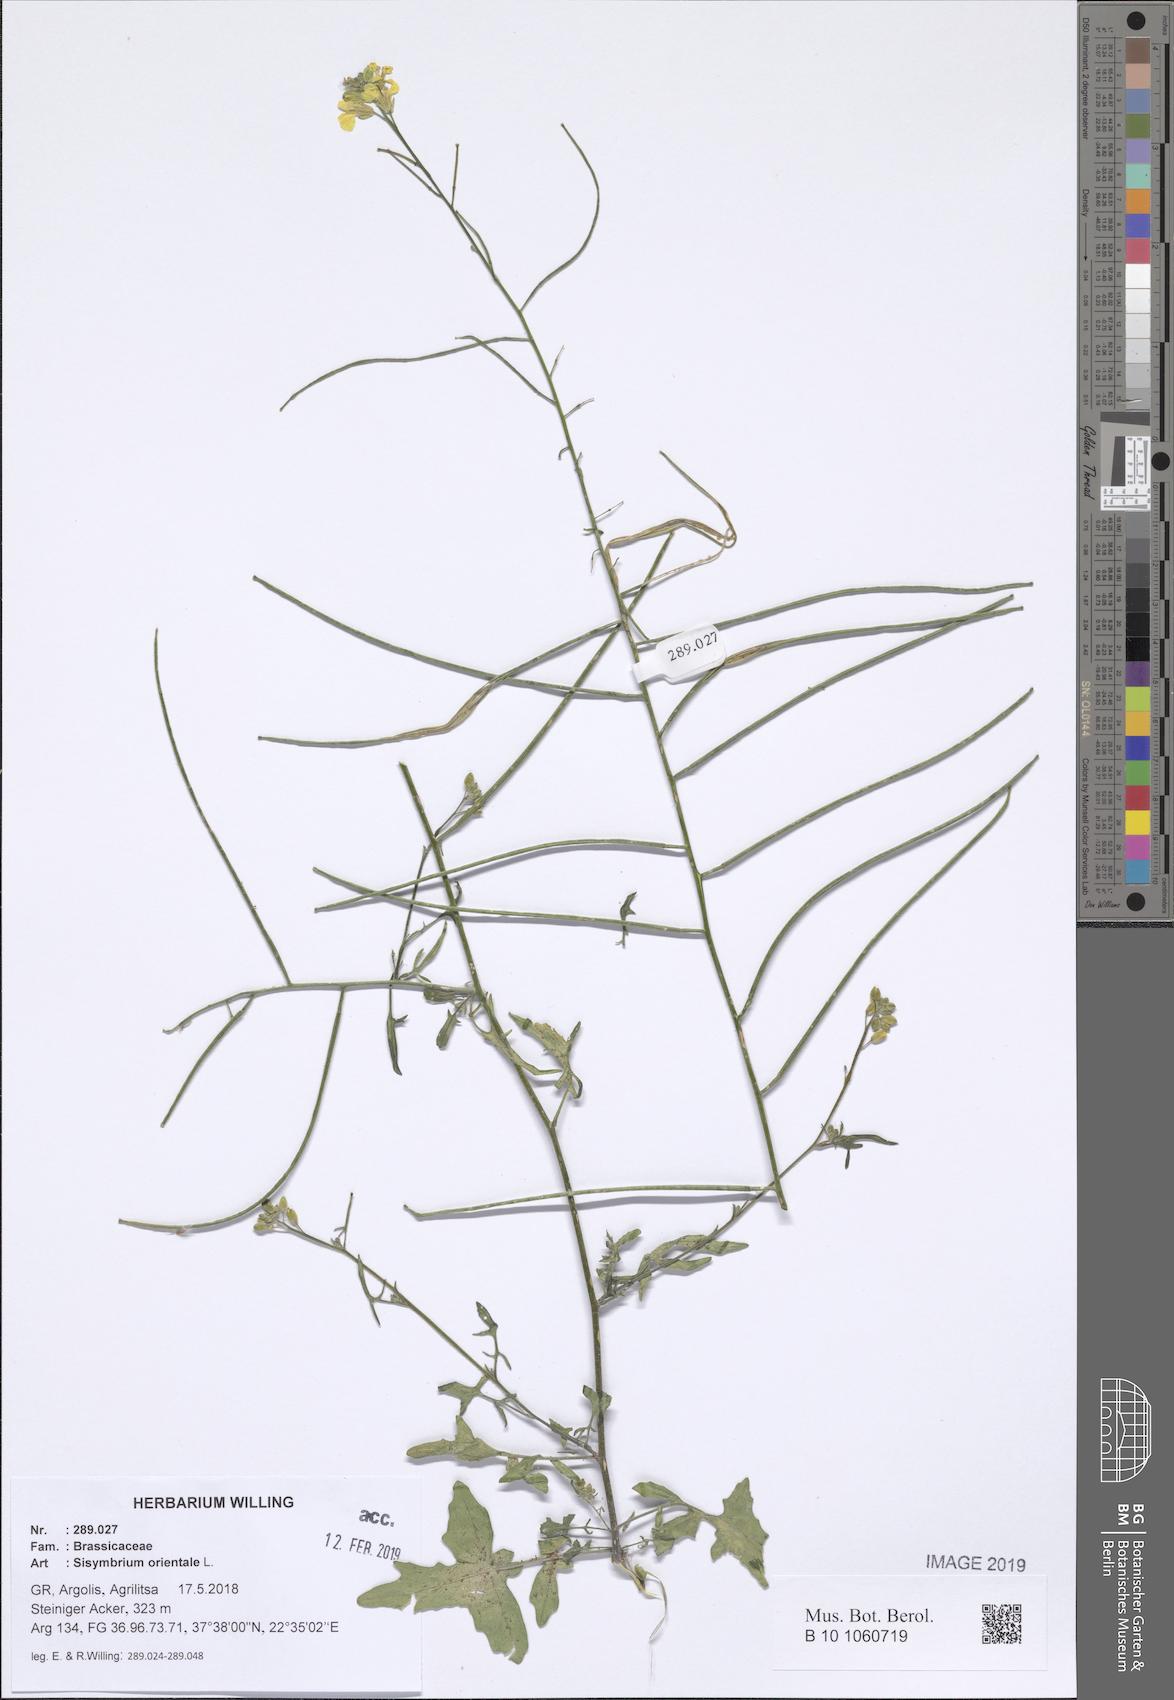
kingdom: Plantae
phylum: Tracheophyta
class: Magnoliopsida
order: Brassicales
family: Brassicaceae
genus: Sisymbrium
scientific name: Sisymbrium orientale
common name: Eastern rocket
